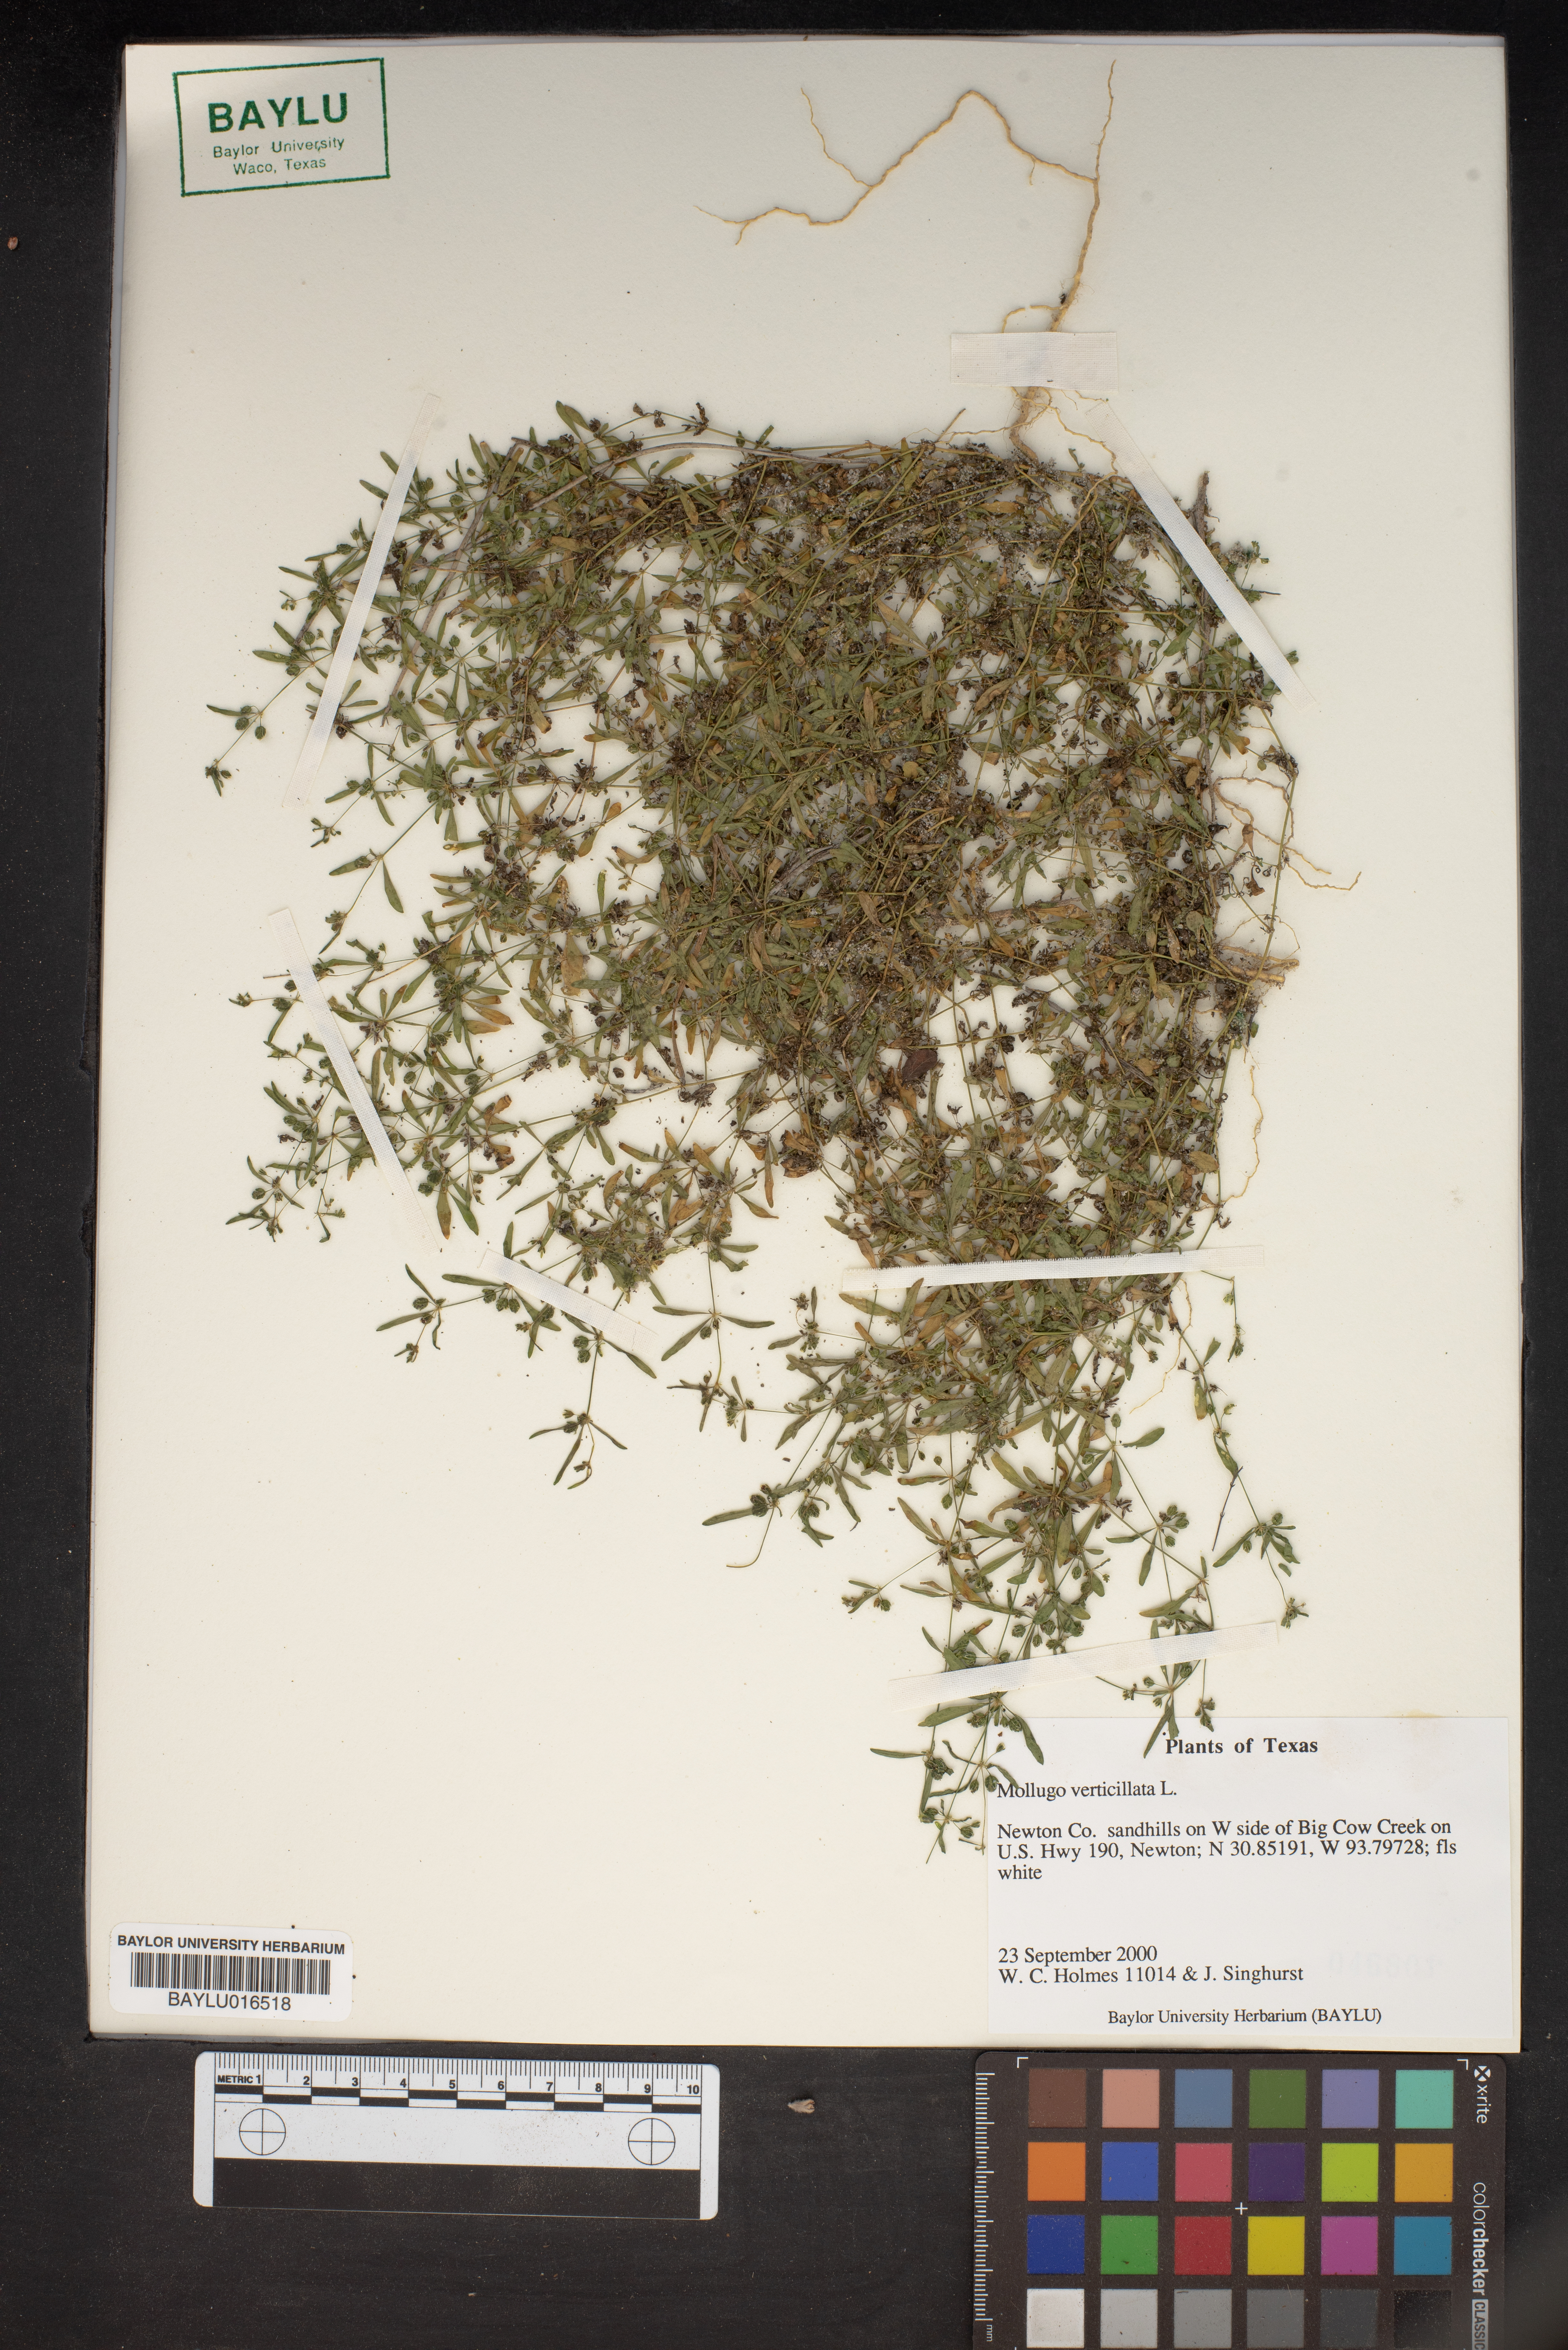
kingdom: Plantae
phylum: Tracheophyta
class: Magnoliopsida
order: Caryophyllales
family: Molluginaceae
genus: Mollugo
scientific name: Mollugo verticillata
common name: Green carpetweed
